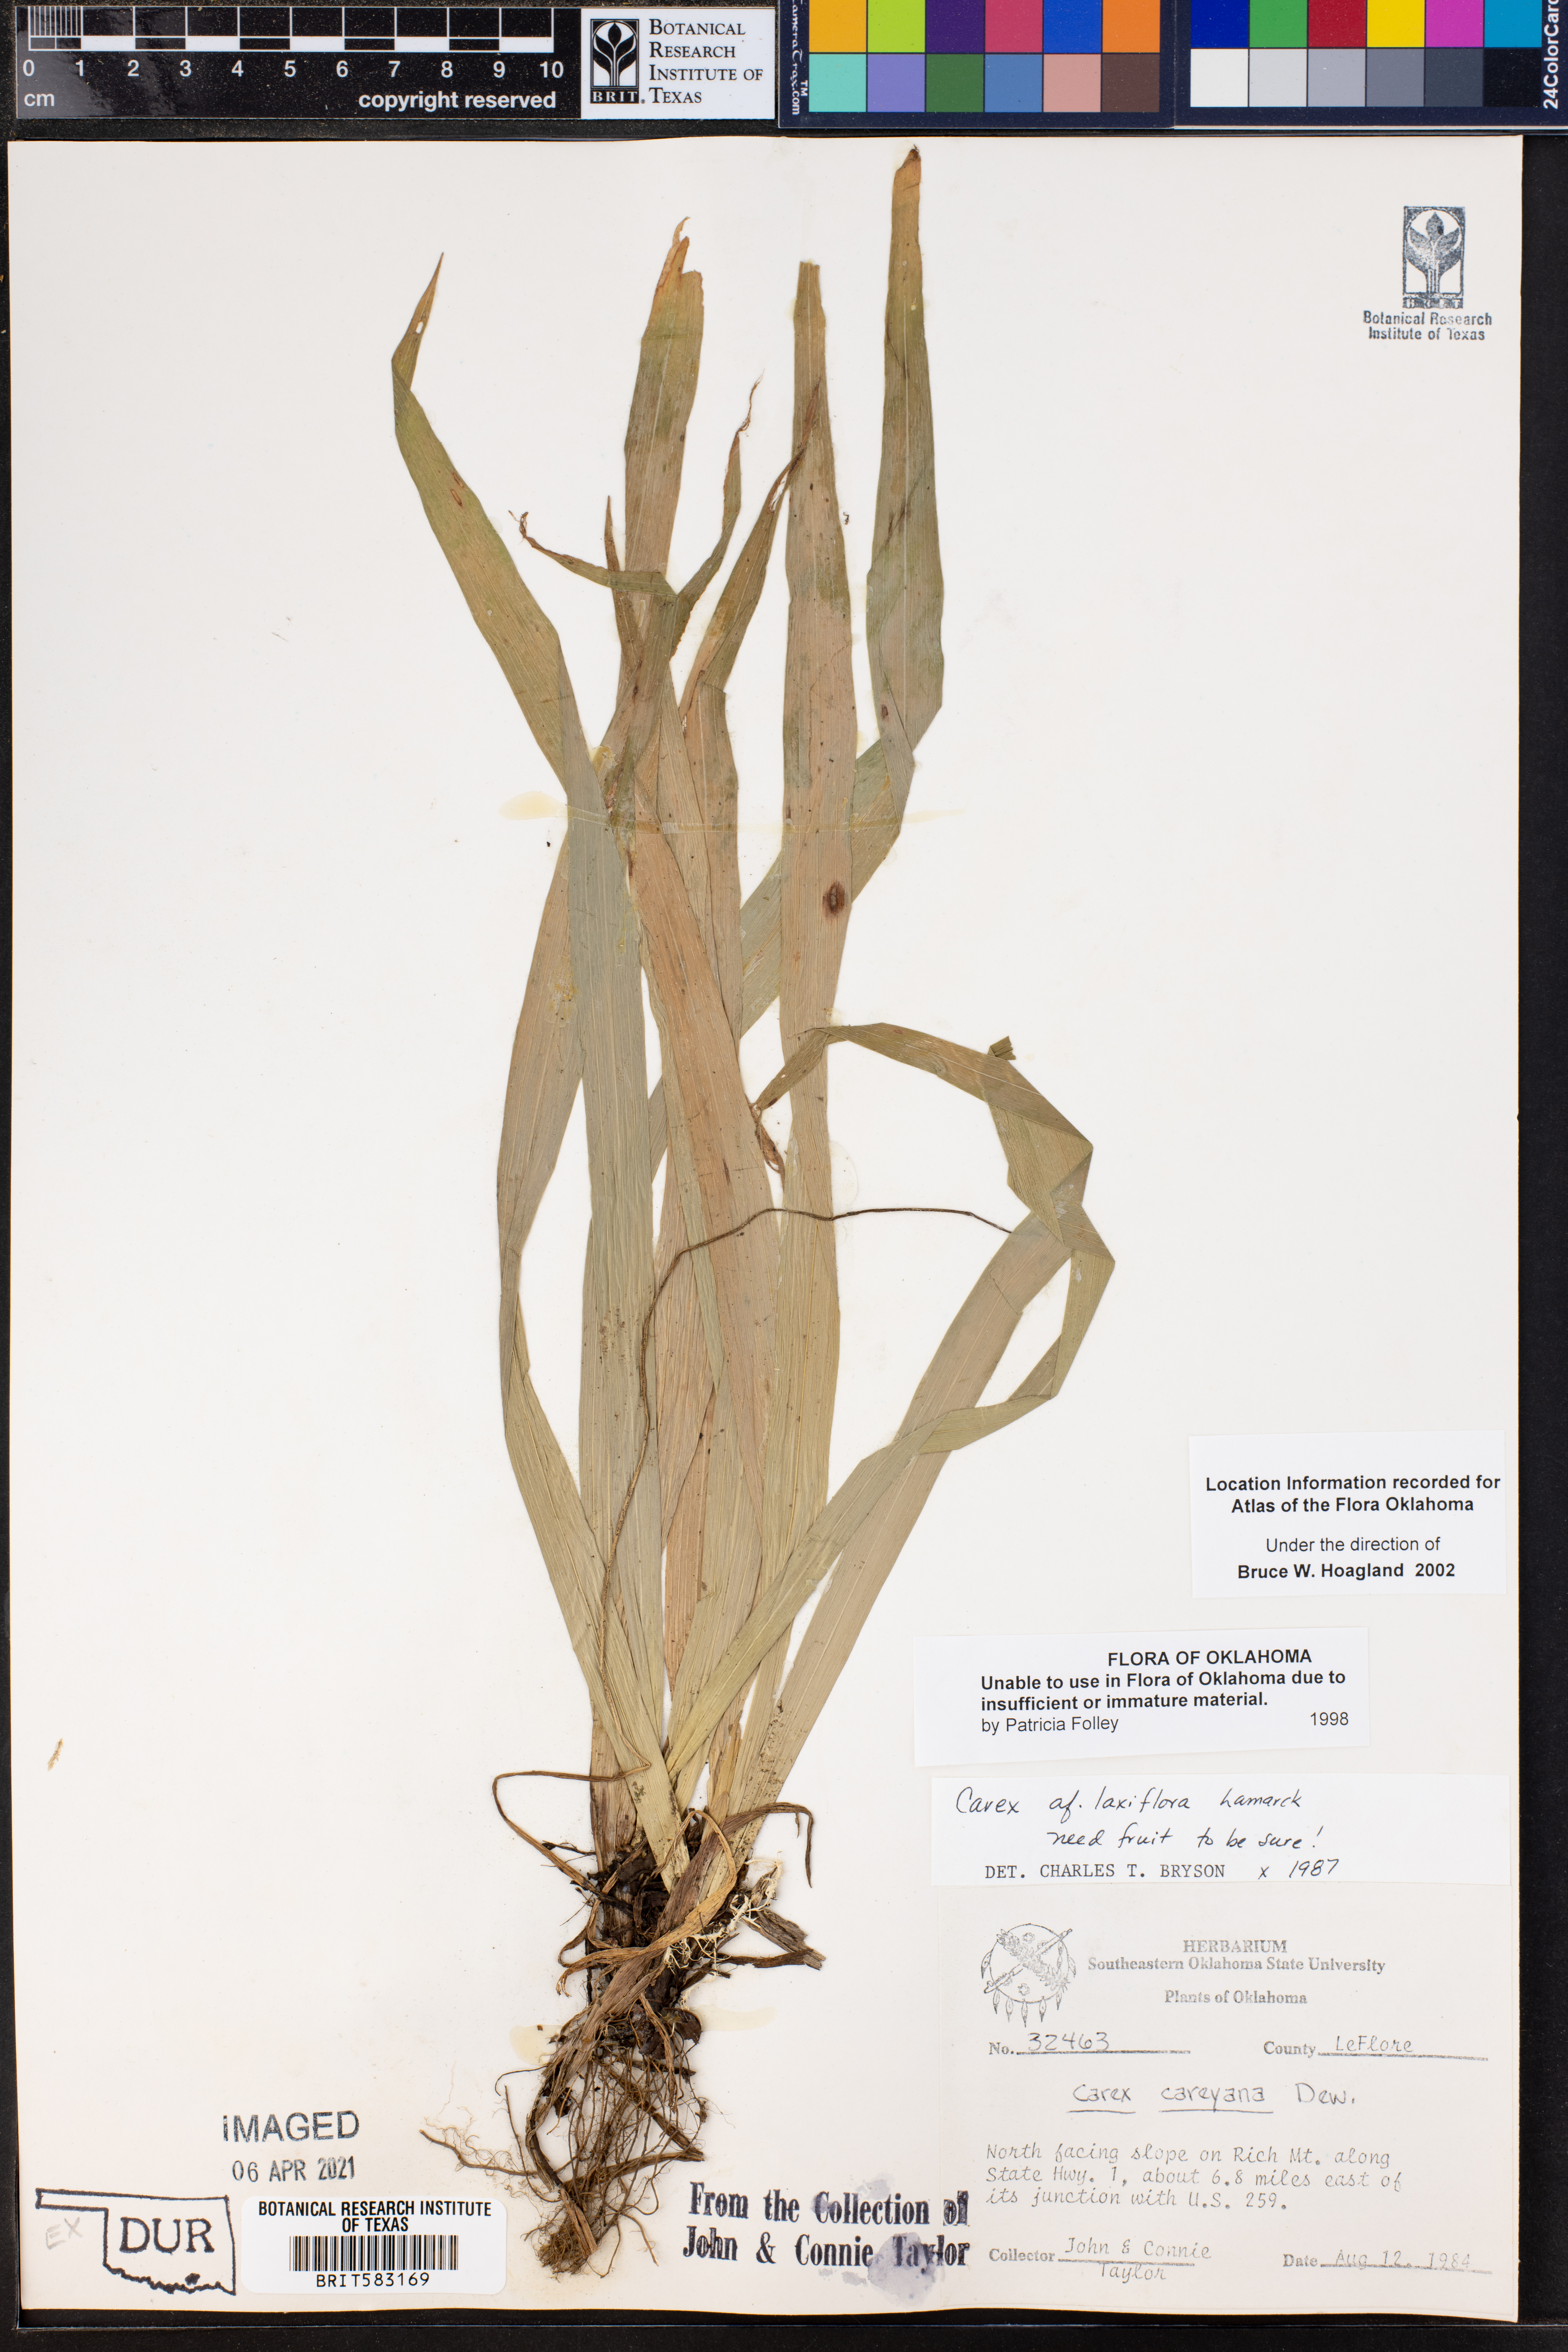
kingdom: Plantae
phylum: Tracheophyta
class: Liliopsida
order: Poales
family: Cyperaceae
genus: Carex
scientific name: Carex laxiflora
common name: Beech wood sedge
